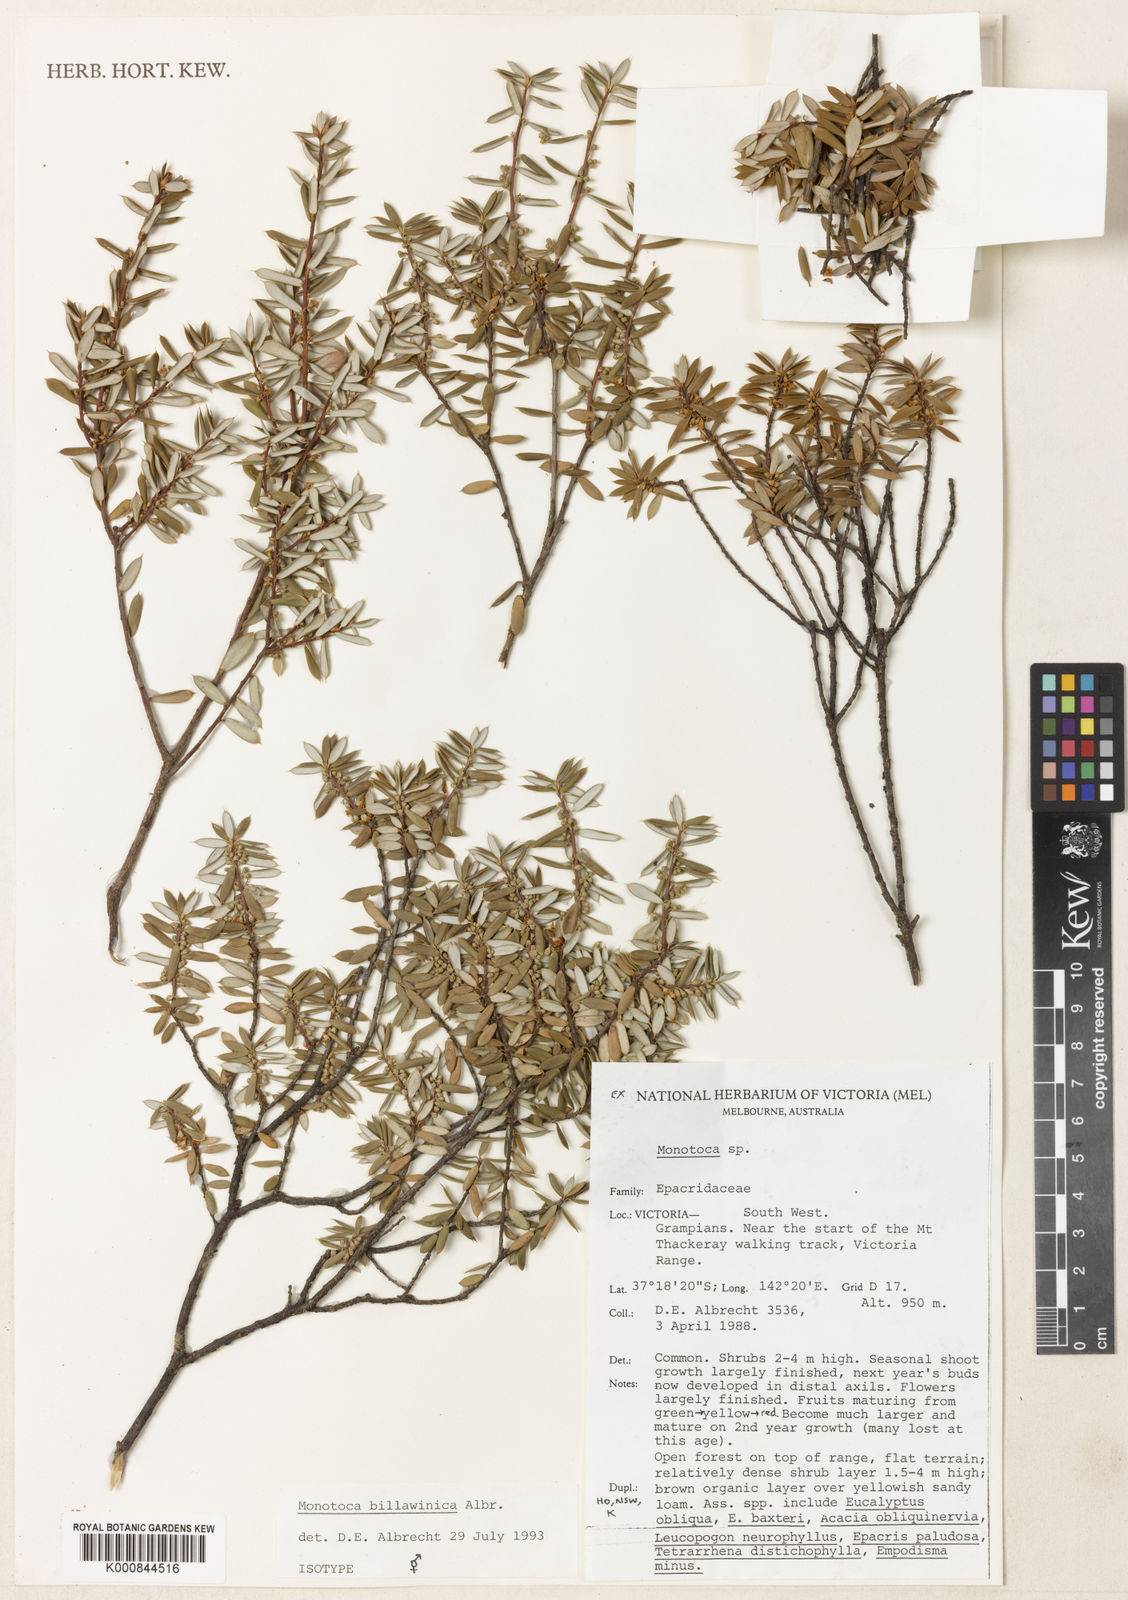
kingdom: Plantae
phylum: Tracheophyta
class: Magnoliopsida
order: Ericales
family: Ericaceae
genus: Monotoca
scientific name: Monotoca billawinica
